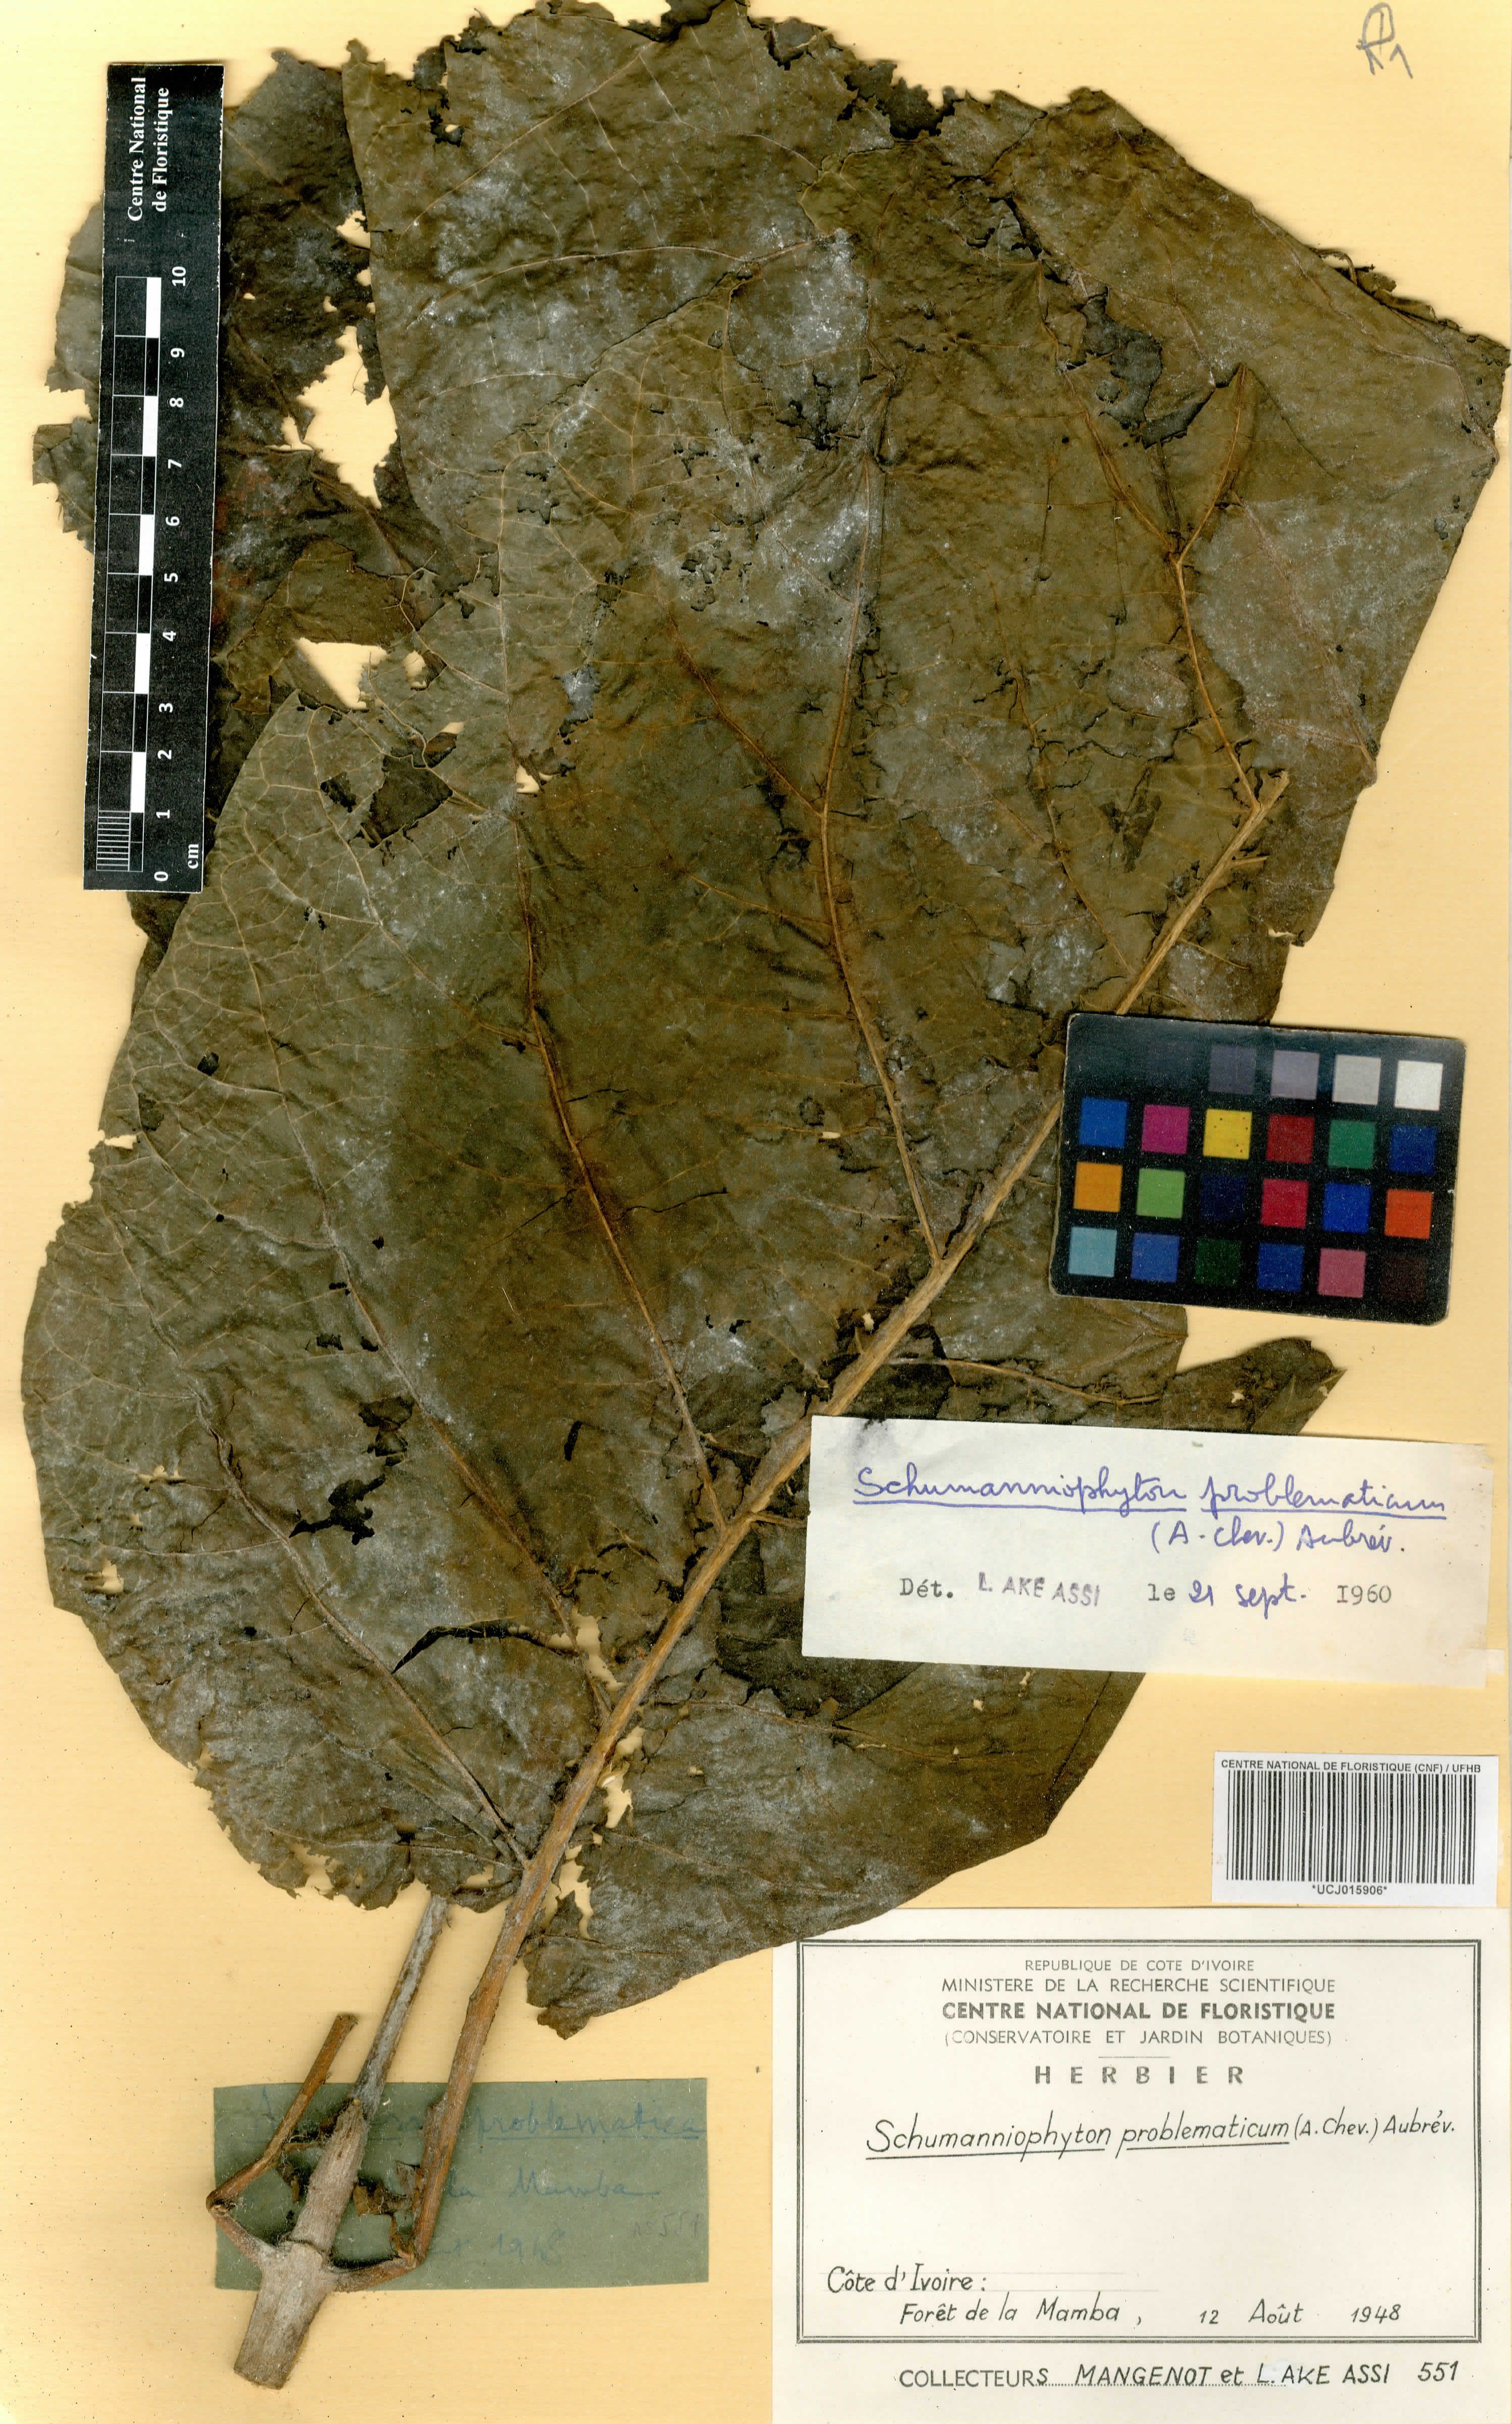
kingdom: Plantae
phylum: Tracheophyta
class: Magnoliopsida
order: Gentianales
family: Rubiaceae
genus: Schumanniophyton
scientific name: Schumanniophyton problematicum
